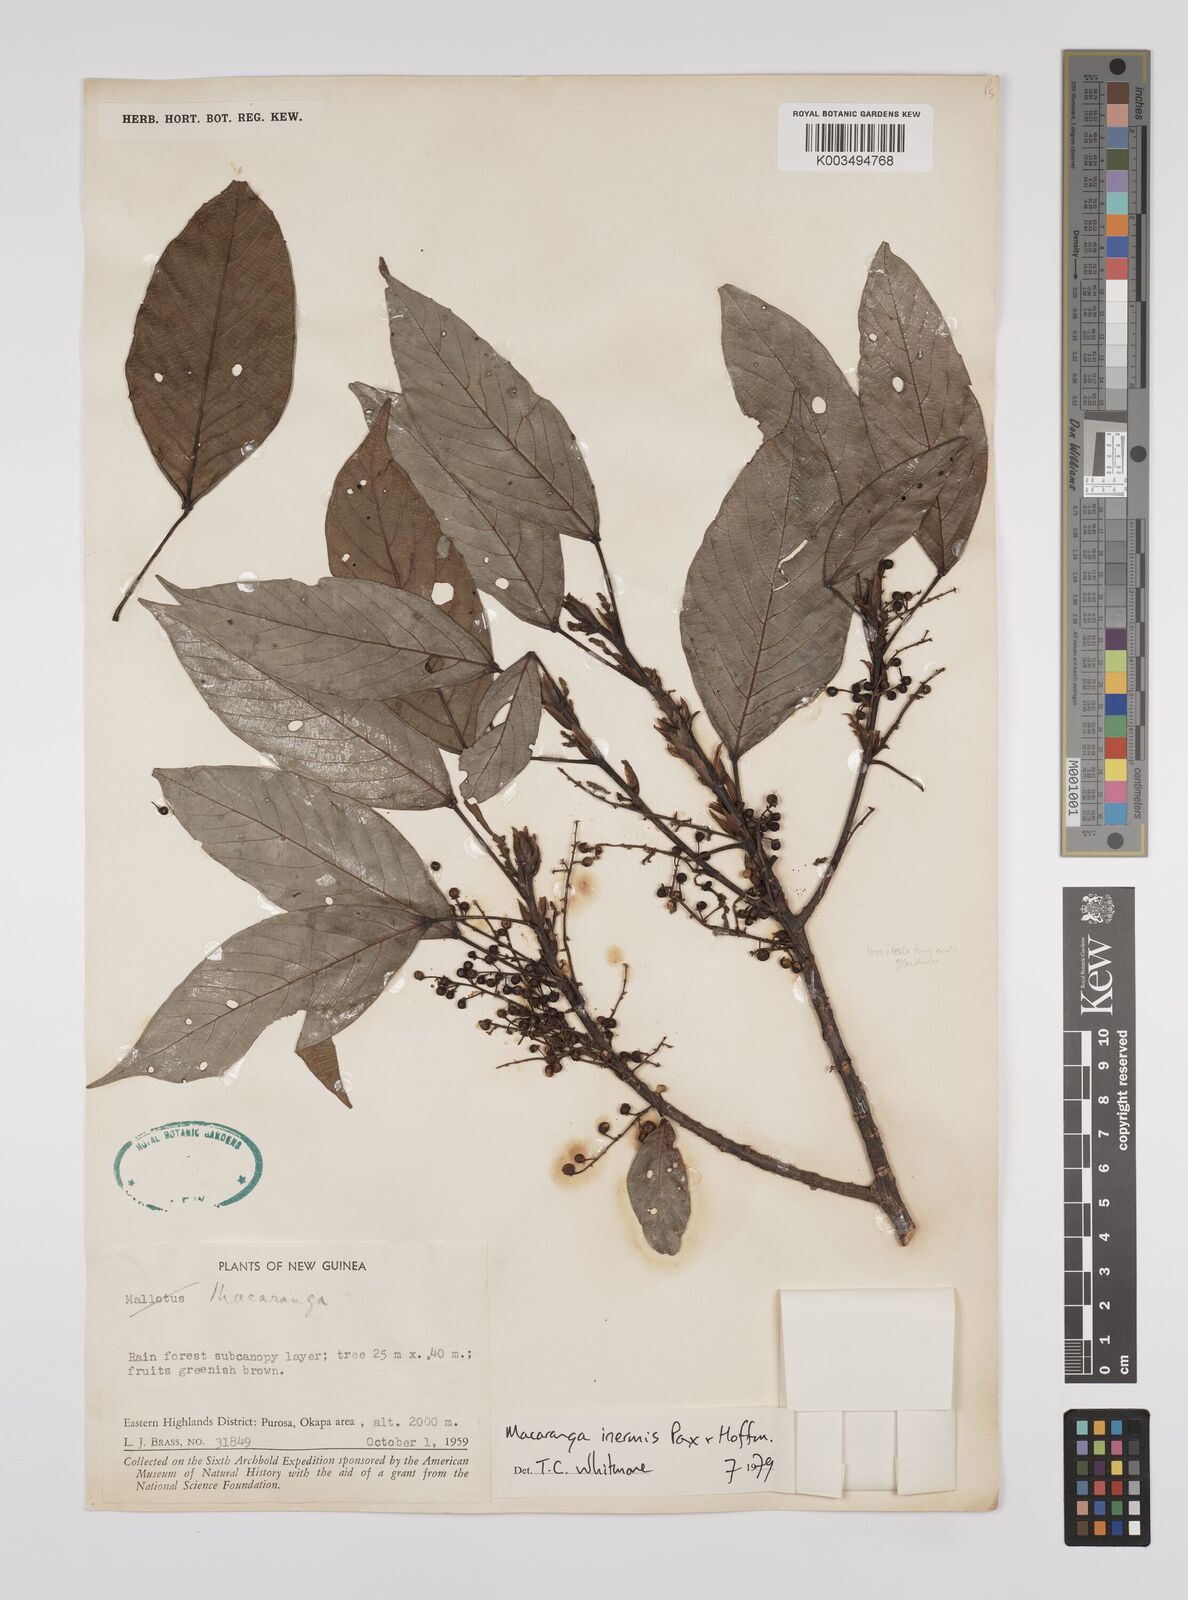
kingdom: Plantae
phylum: Tracheophyta
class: Magnoliopsida
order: Malpighiales
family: Euphorbiaceae
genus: Macaranga
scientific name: Macaranga inermis
